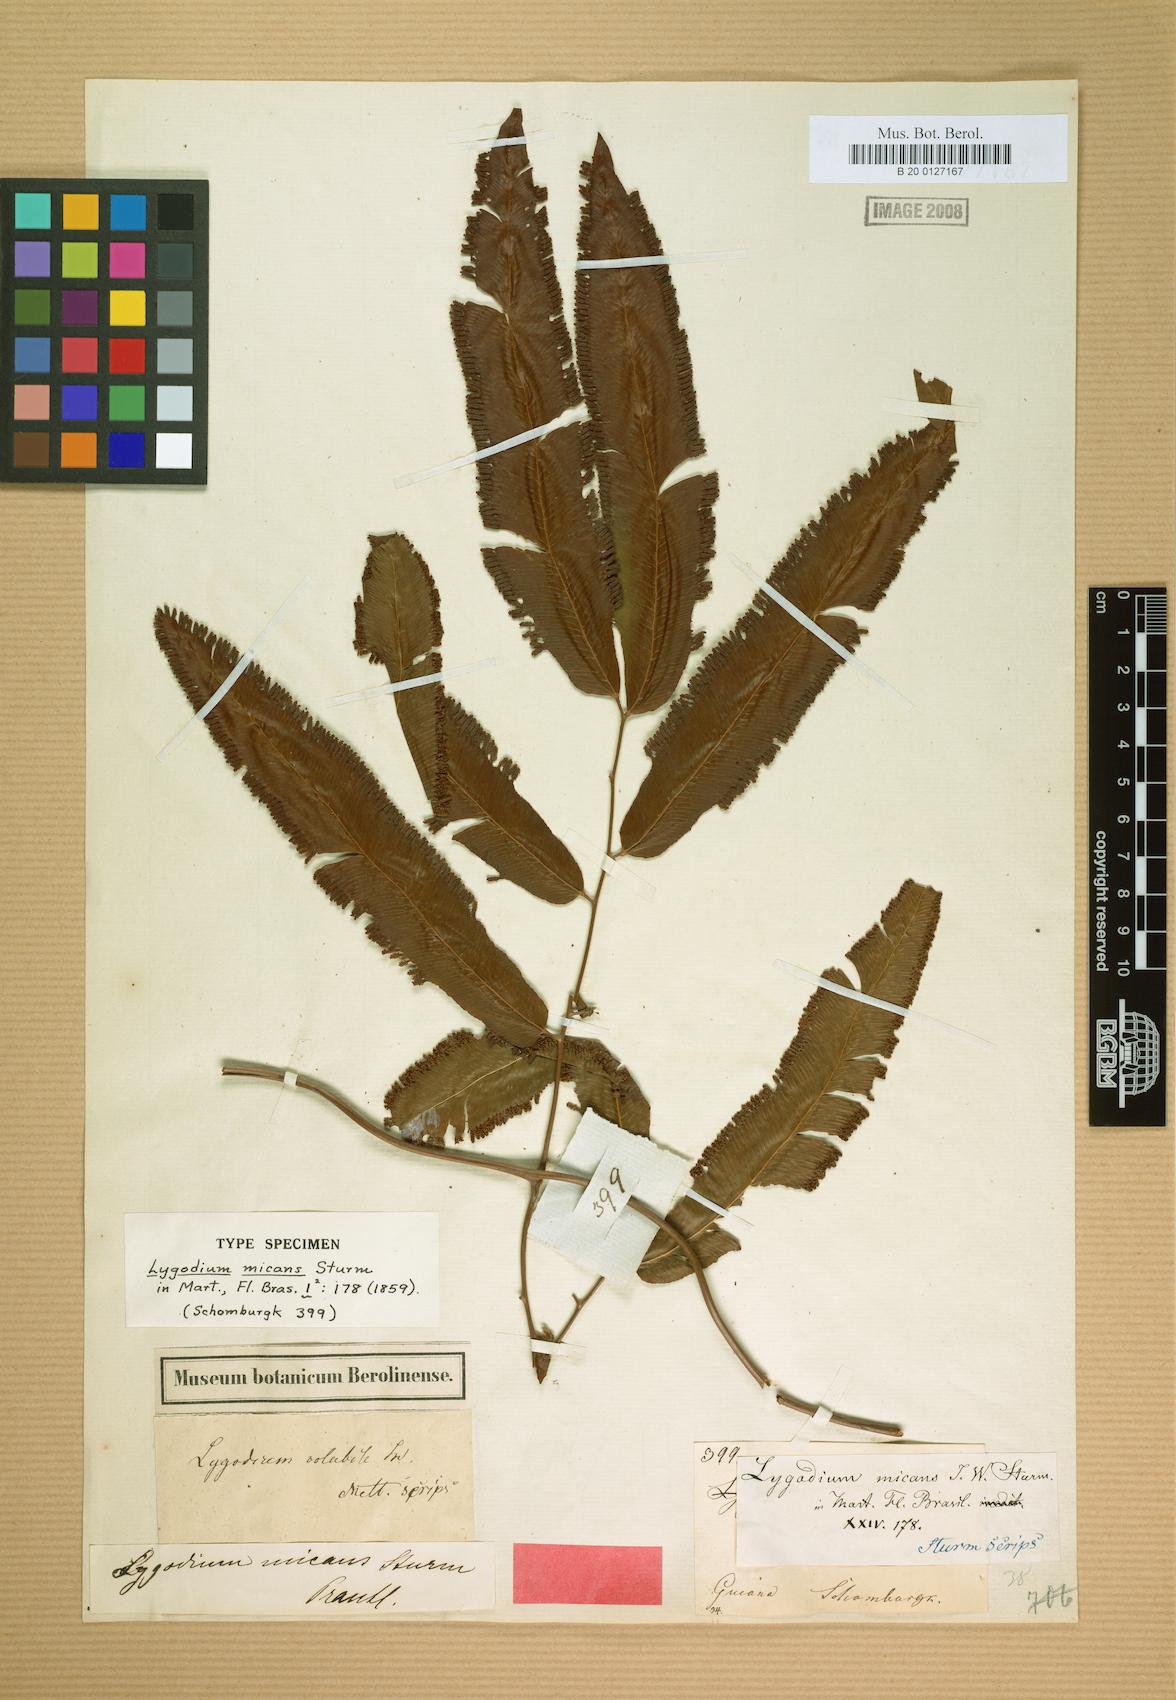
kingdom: Plantae
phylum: Tracheophyta
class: Polypodiopsida
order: Schizaeales
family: Lygodiaceae
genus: Lygodium
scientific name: Lygodium volubile
